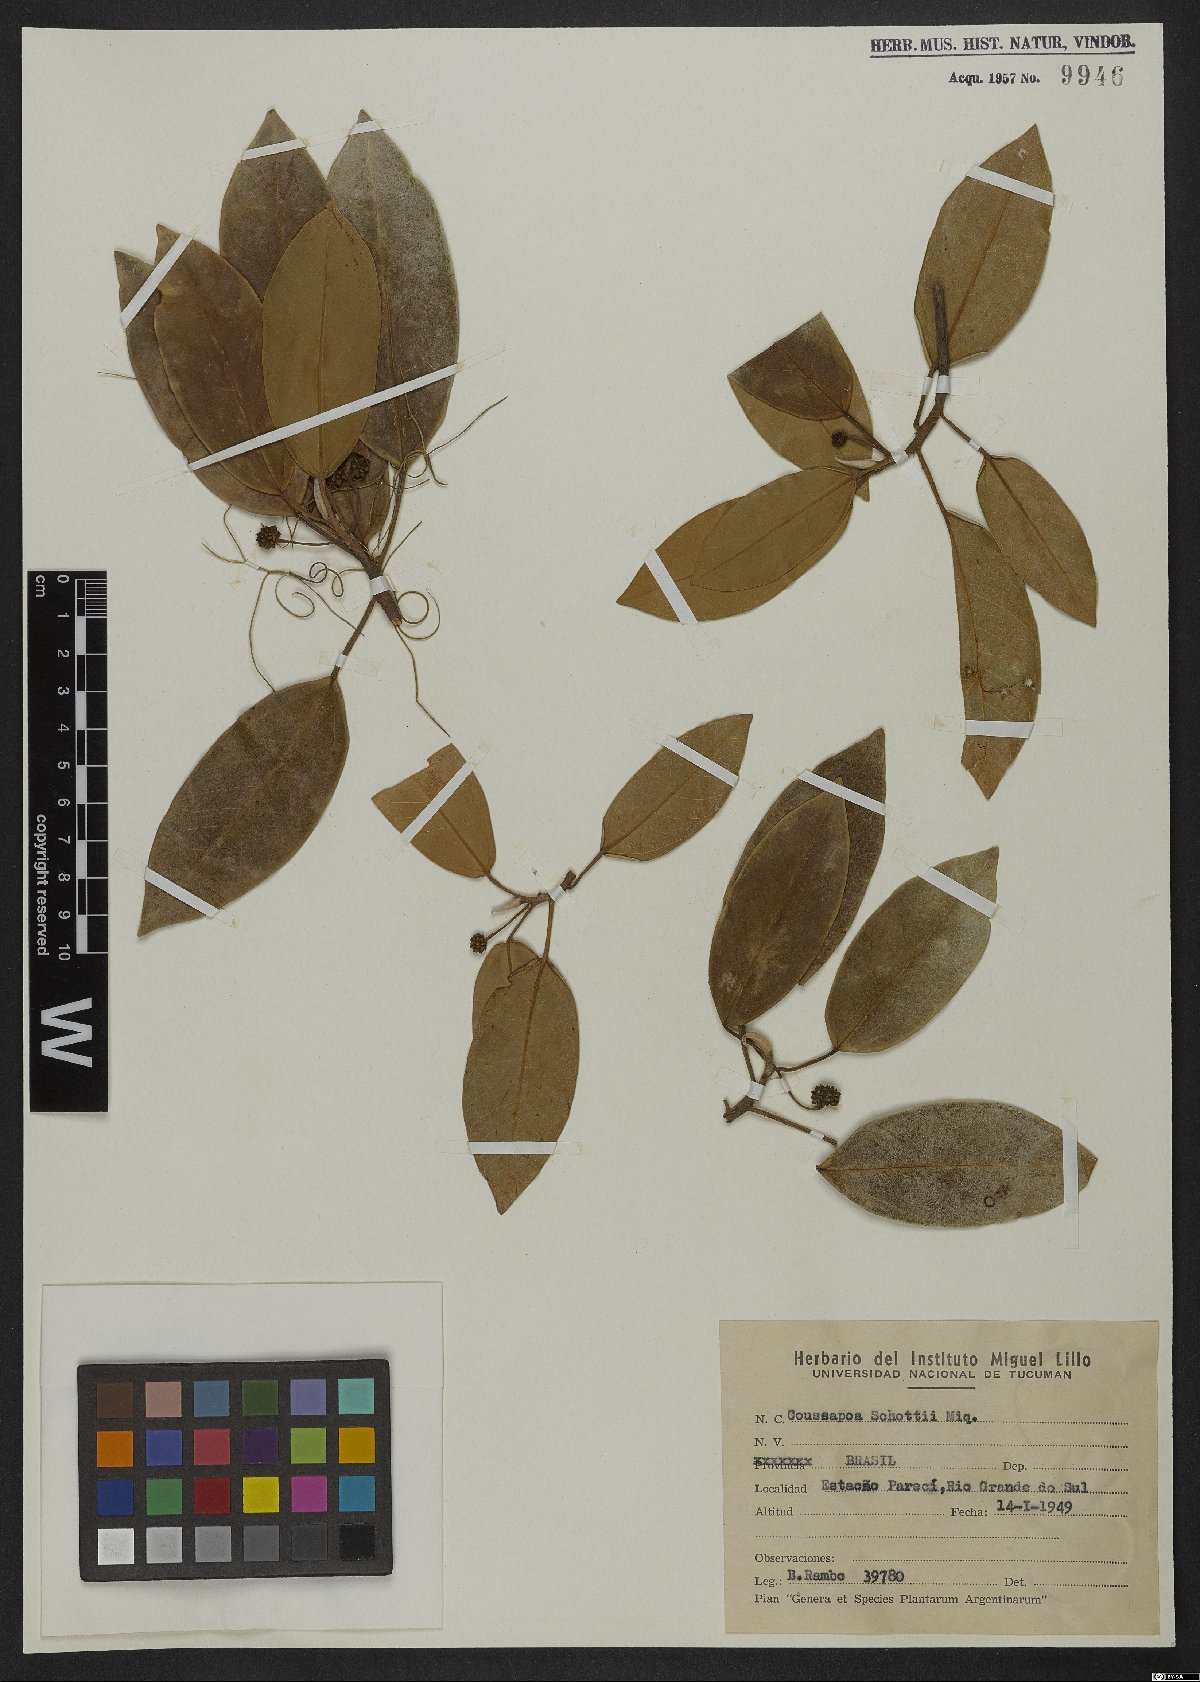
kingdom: Plantae
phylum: Tracheophyta
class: Magnoliopsida
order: Rosales
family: Urticaceae
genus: Coussapoa
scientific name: Coussapoa microcarpa
